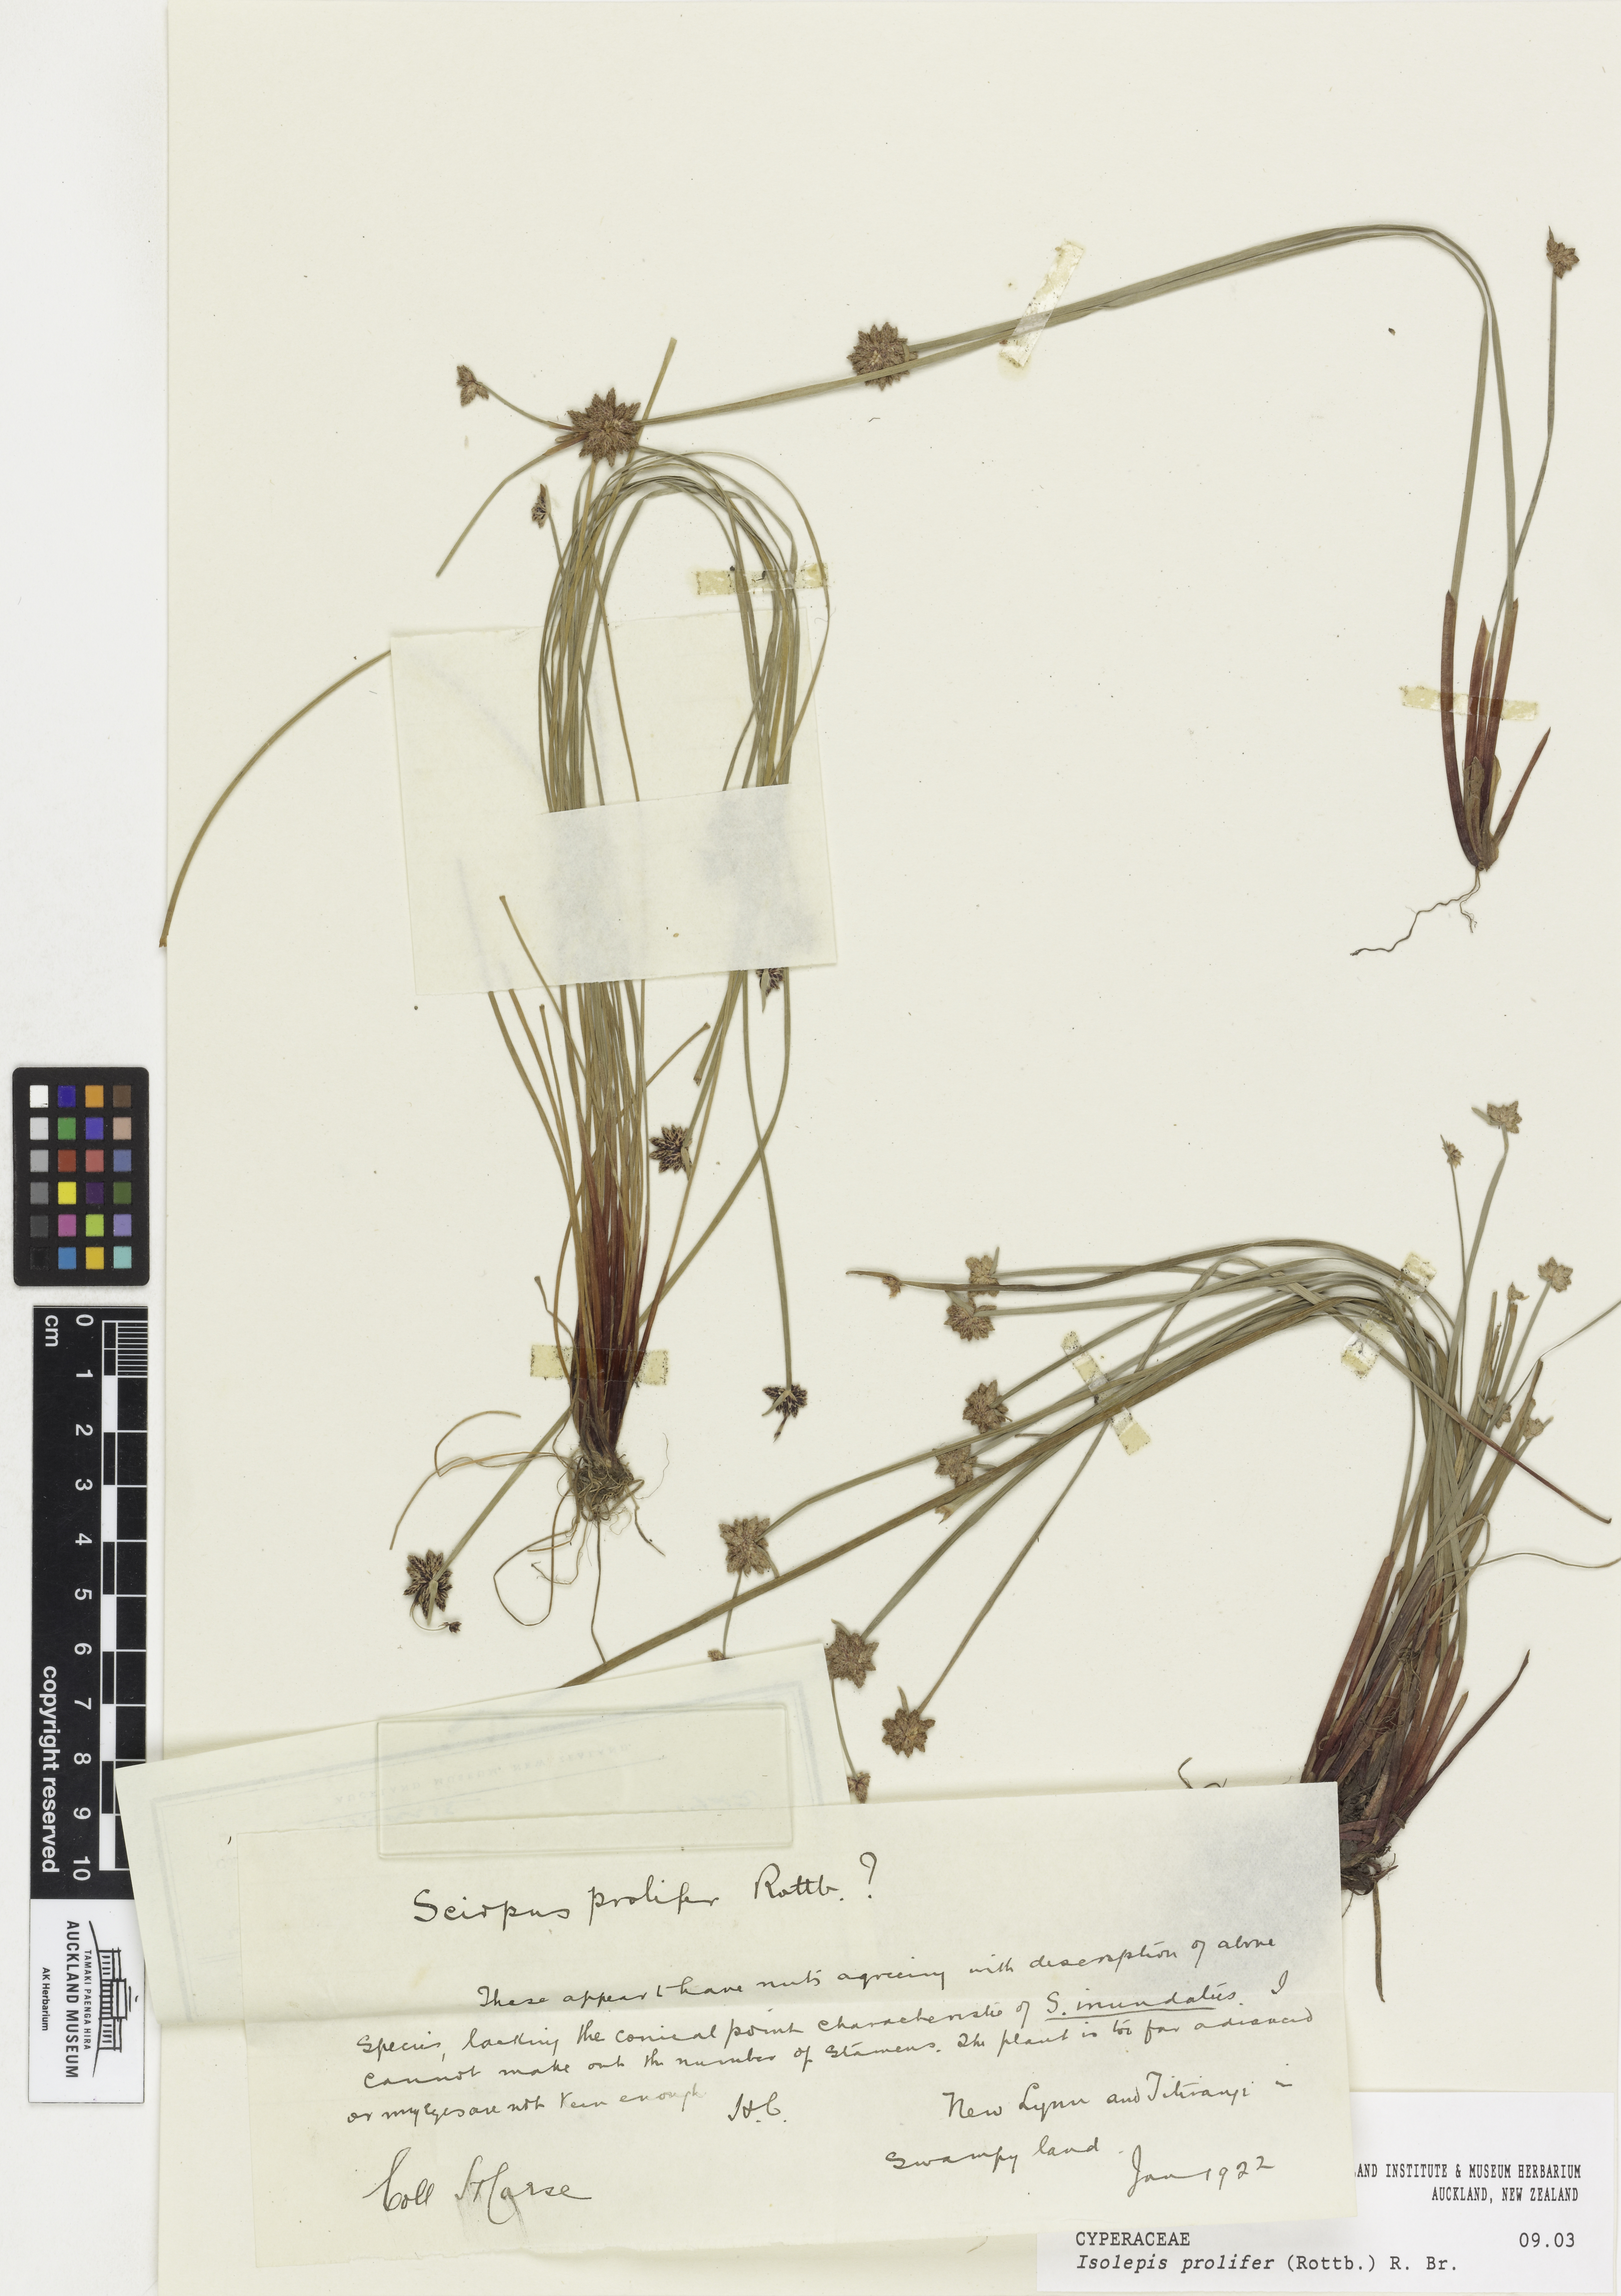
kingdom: Plantae
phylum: Tracheophyta
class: Liliopsida
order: Poales
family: Cyperaceae
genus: Isolepis
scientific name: Isolepis prolifera
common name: Proliferating bulrush
